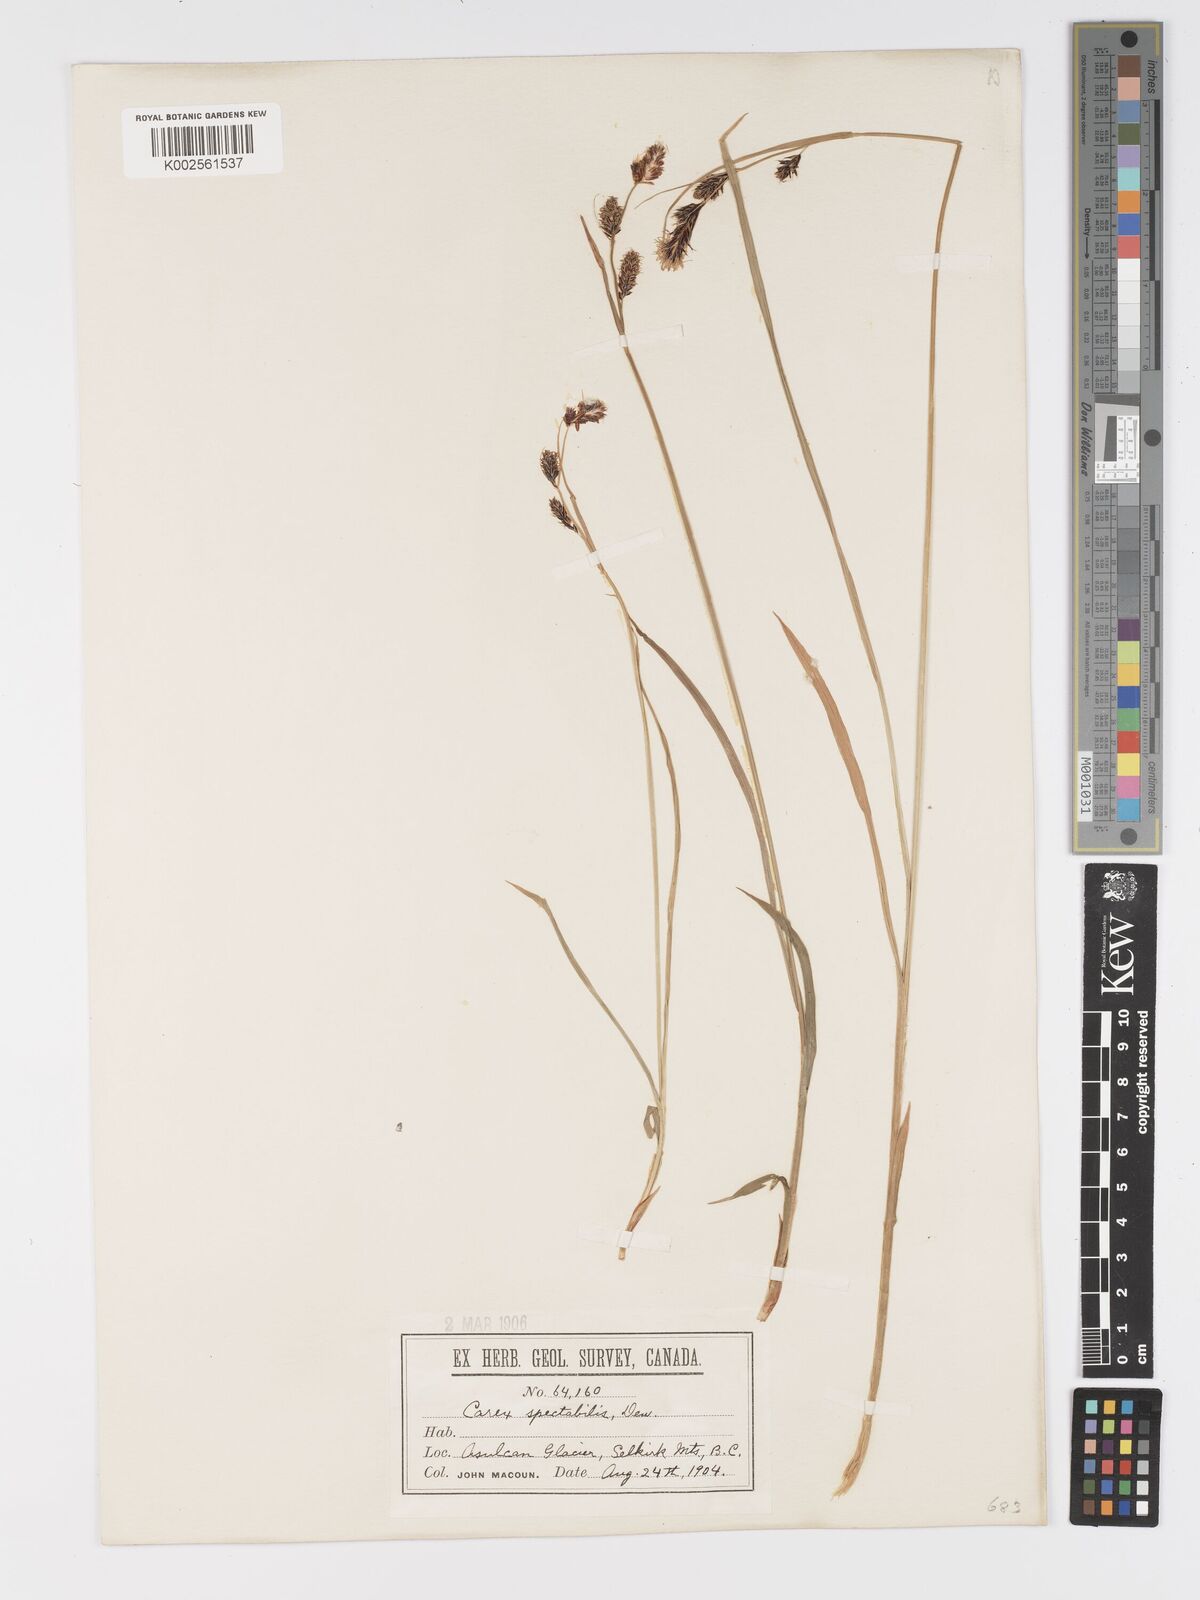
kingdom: Plantae
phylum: Tracheophyta
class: Liliopsida
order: Poales
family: Cyperaceae
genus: Carex
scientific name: Carex spectabilis
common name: Northwestern showy sedge
